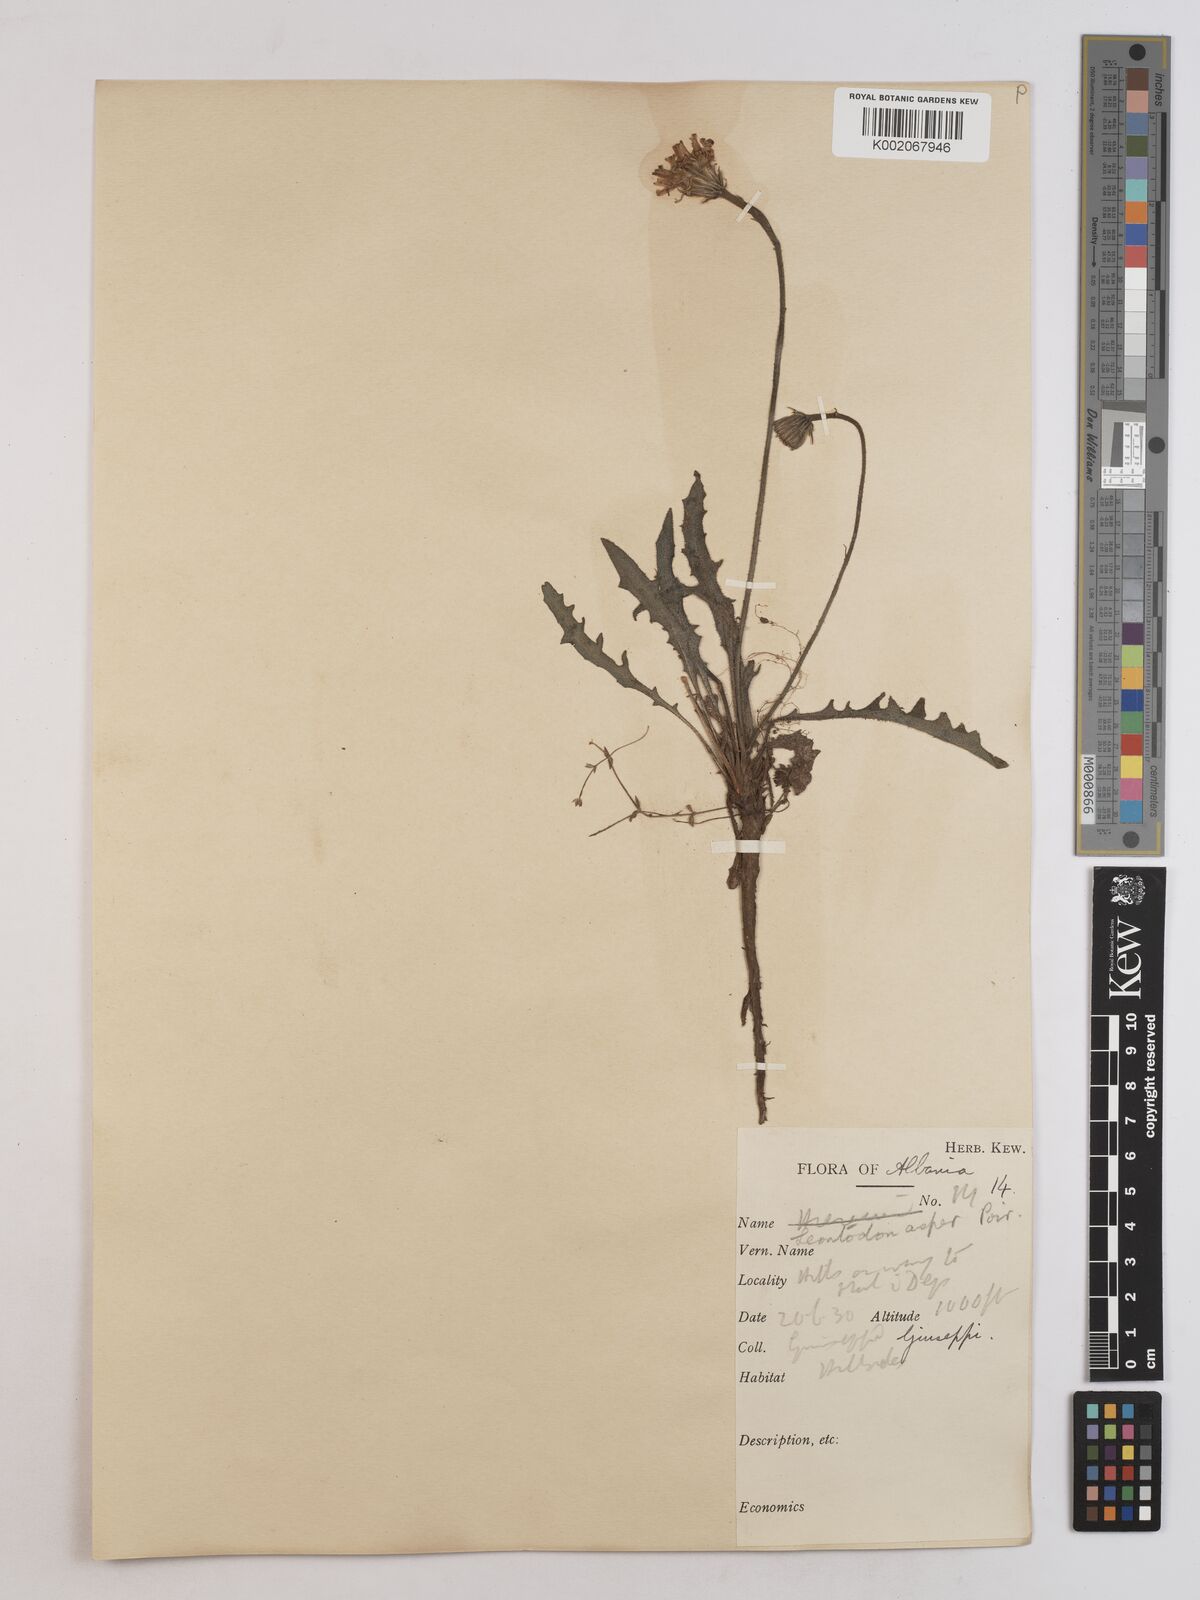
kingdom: Plantae
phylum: Tracheophyta
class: Magnoliopsida
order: Asterales
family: Asteraceae
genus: Leontodon
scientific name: Leontodon
